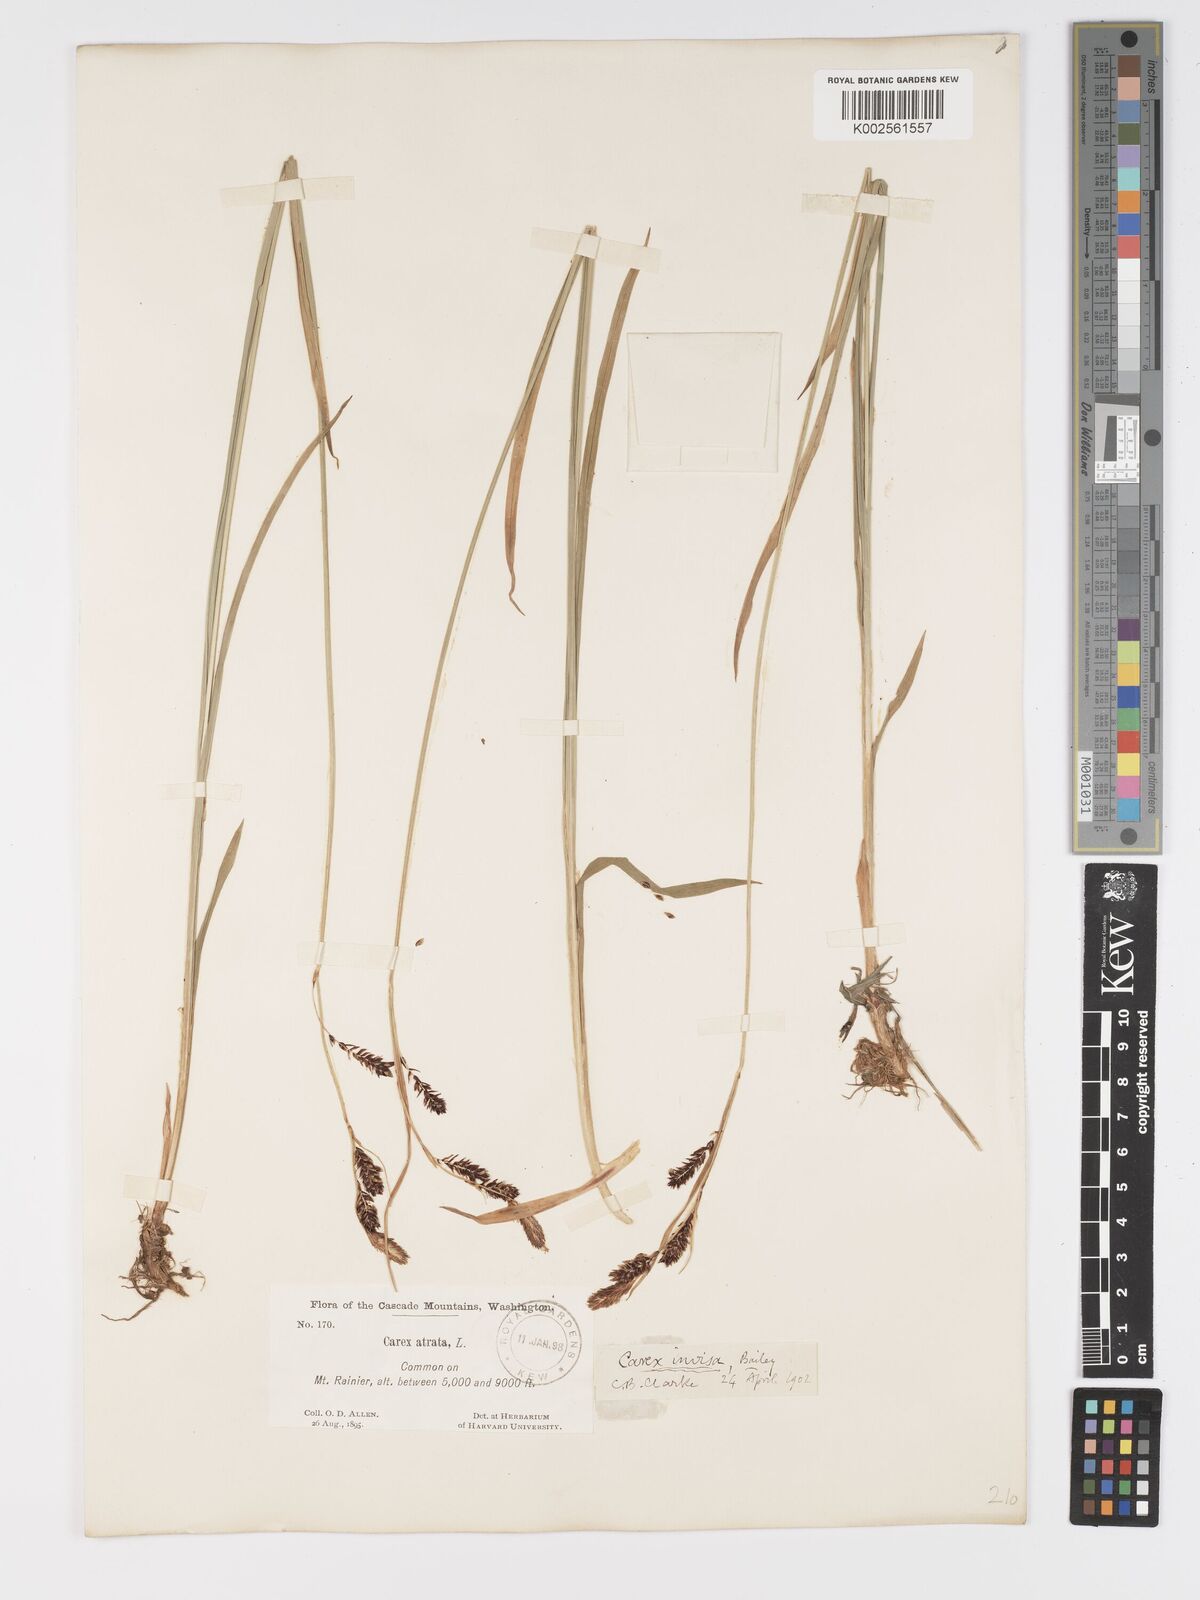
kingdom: Plantae
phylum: Tracheophyta
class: Liliopsida
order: Poales
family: Cyperaceae
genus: Carex
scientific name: Carex spectabilis
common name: Northwestern showy sedge
